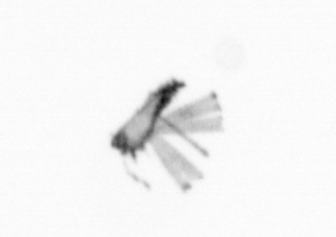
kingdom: Chromista
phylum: Ochrophyta
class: Bacillariophyceae
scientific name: Bacillariophyceae
